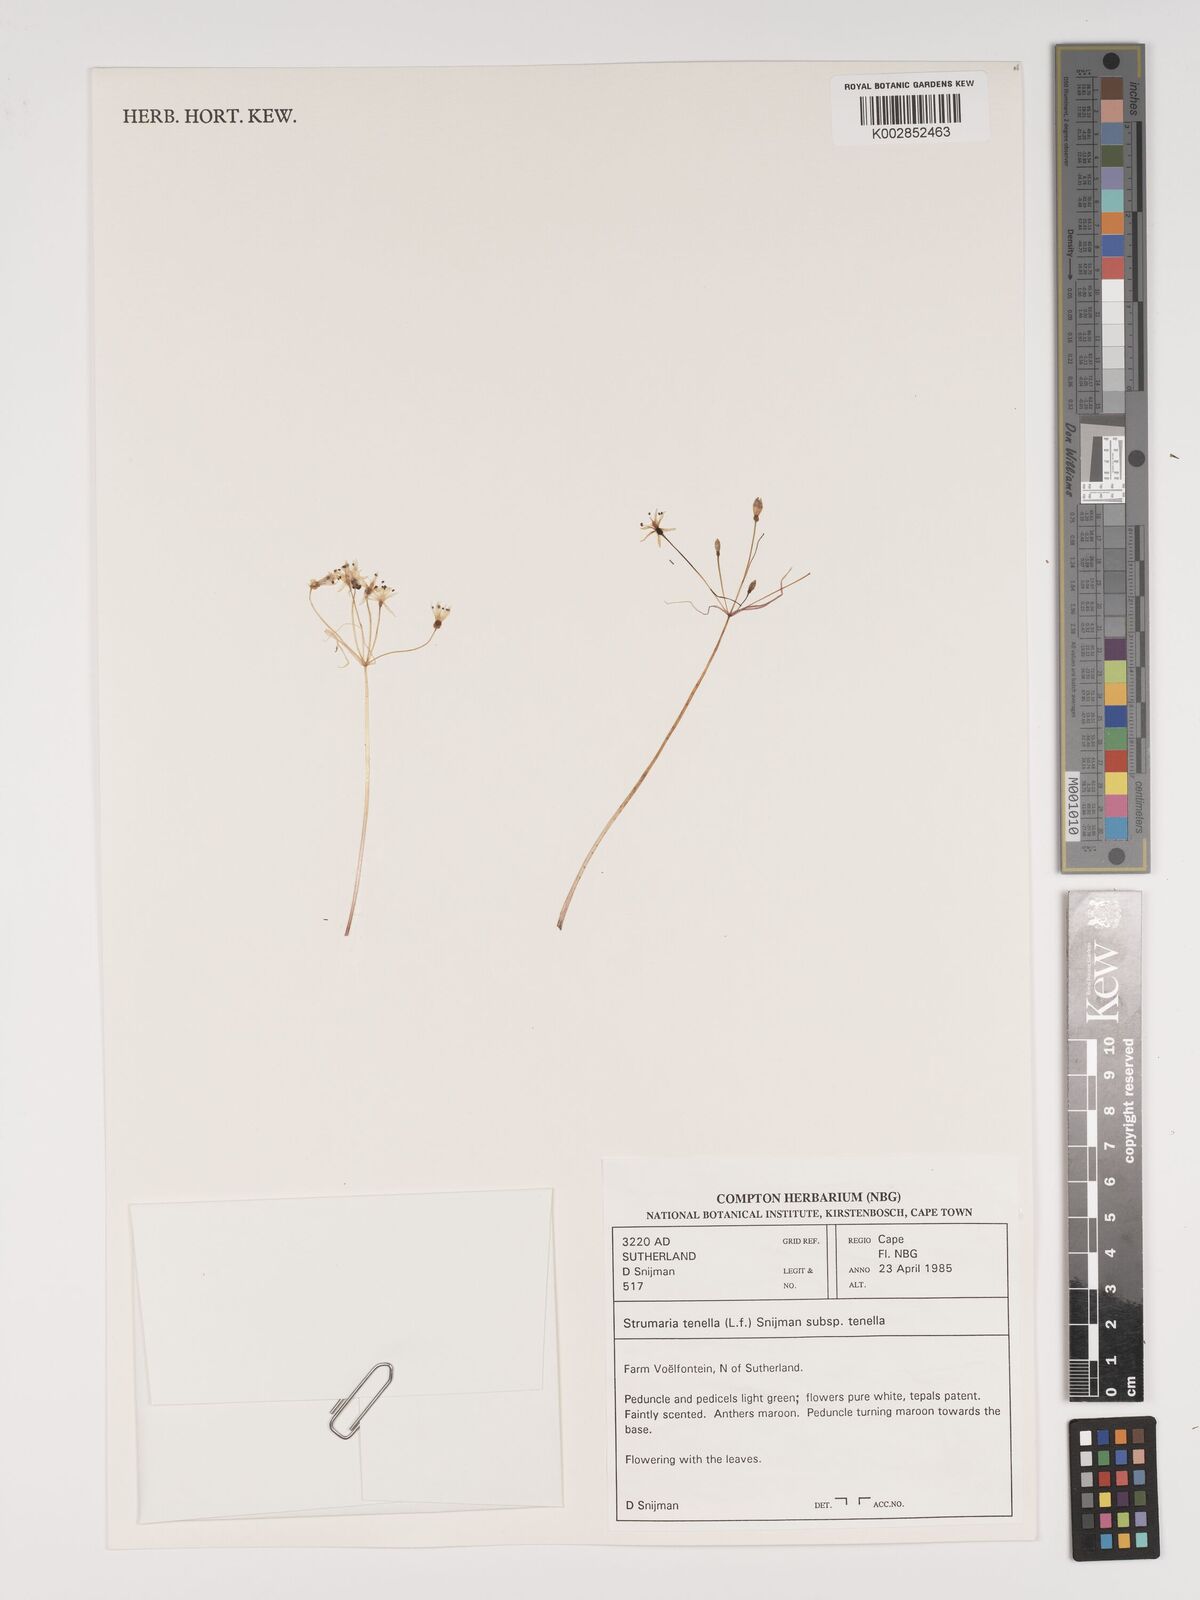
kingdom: Plantae
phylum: Tracheophyta
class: Liliopsida
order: Asparagales
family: Amaryllidaceae
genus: Strumaria
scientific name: Strumaria tenella
